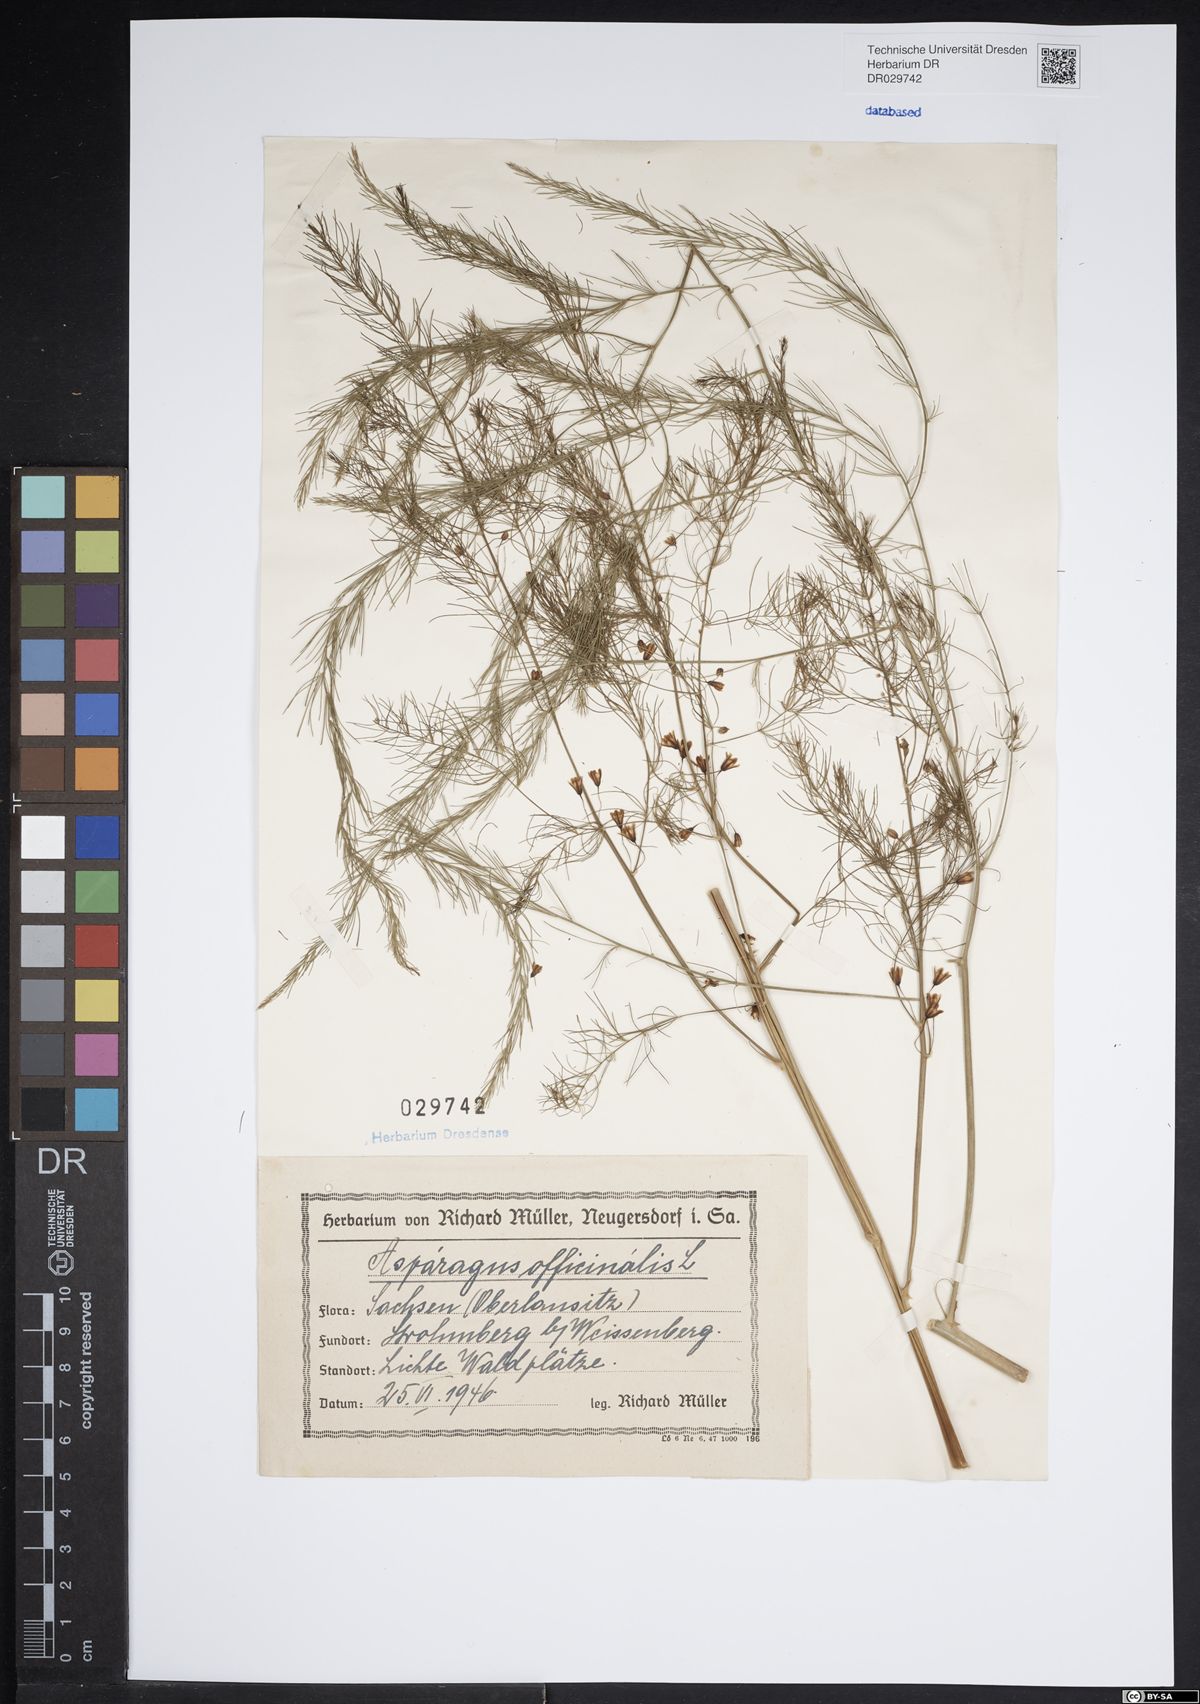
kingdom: Plantae
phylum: Tracheophyta
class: Liliopsida
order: Asparagales
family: Asparagaceae
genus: Asparagus
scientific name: Asparagus officinalis
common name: Garden asparagus
